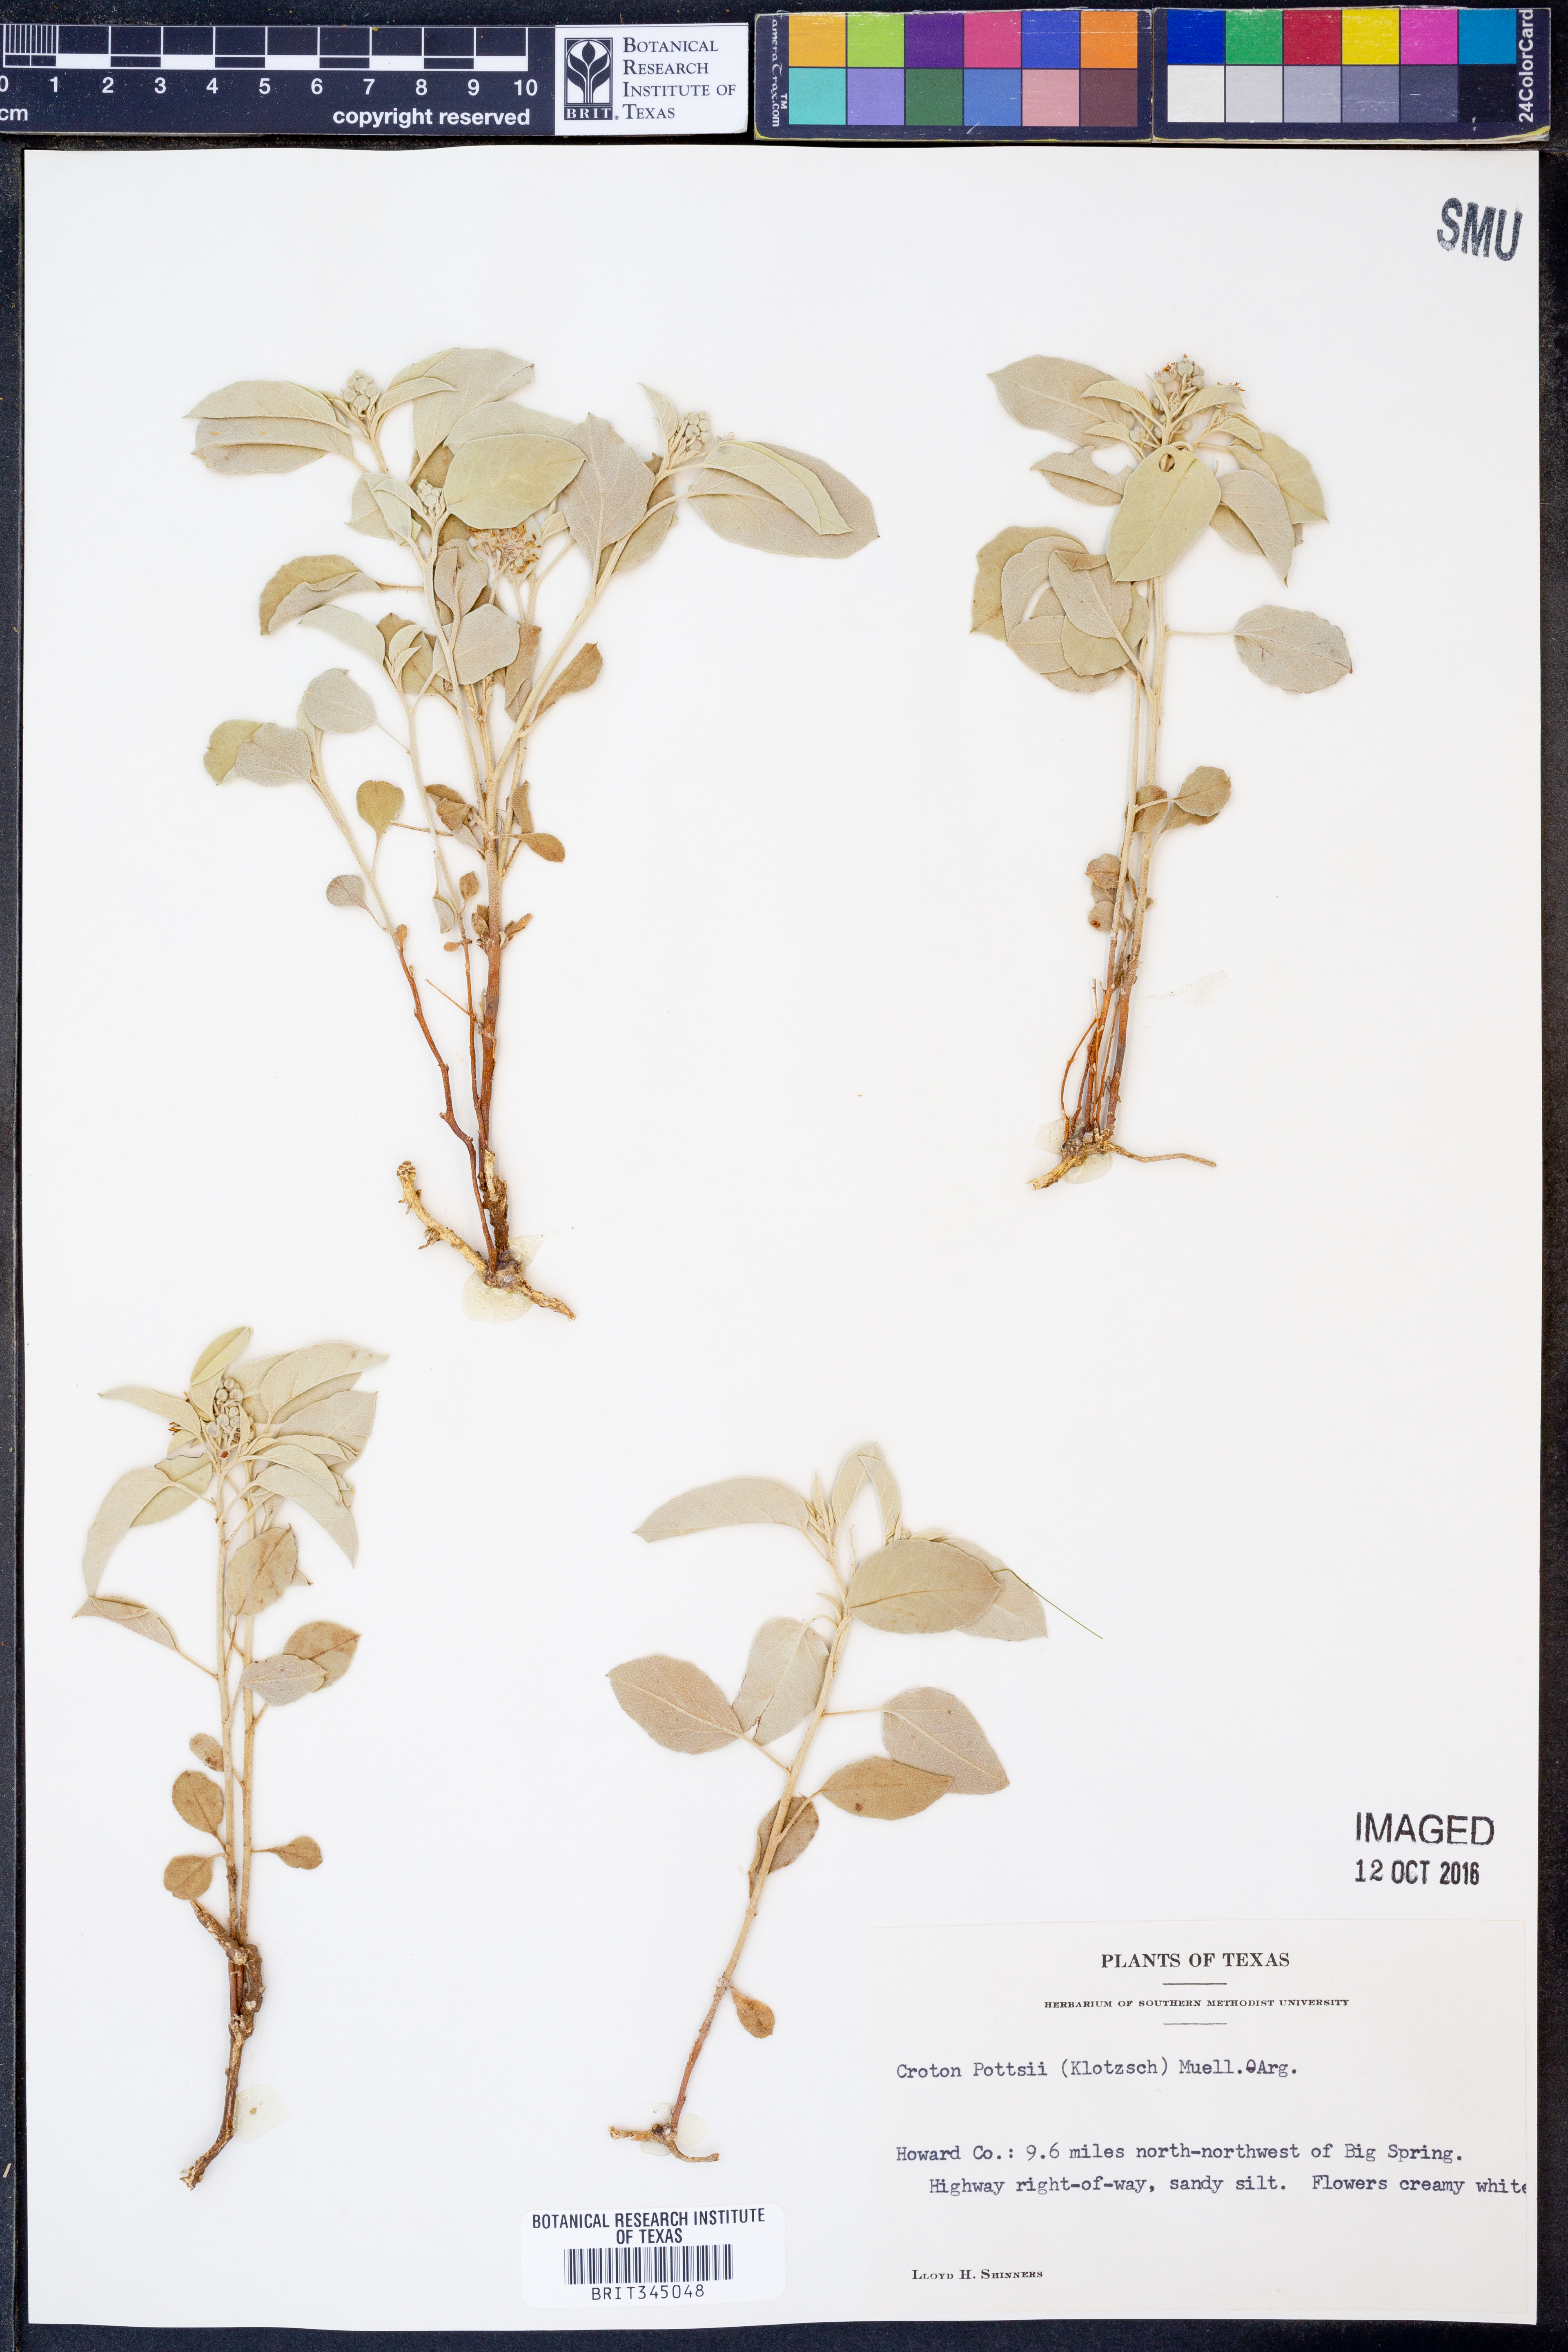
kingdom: Plantae
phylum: Tracheophyta
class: Magnoliopsida
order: Malpighiales
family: Euphorbiaceae
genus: Croton
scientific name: Croton pottsii
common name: Leatherweed
